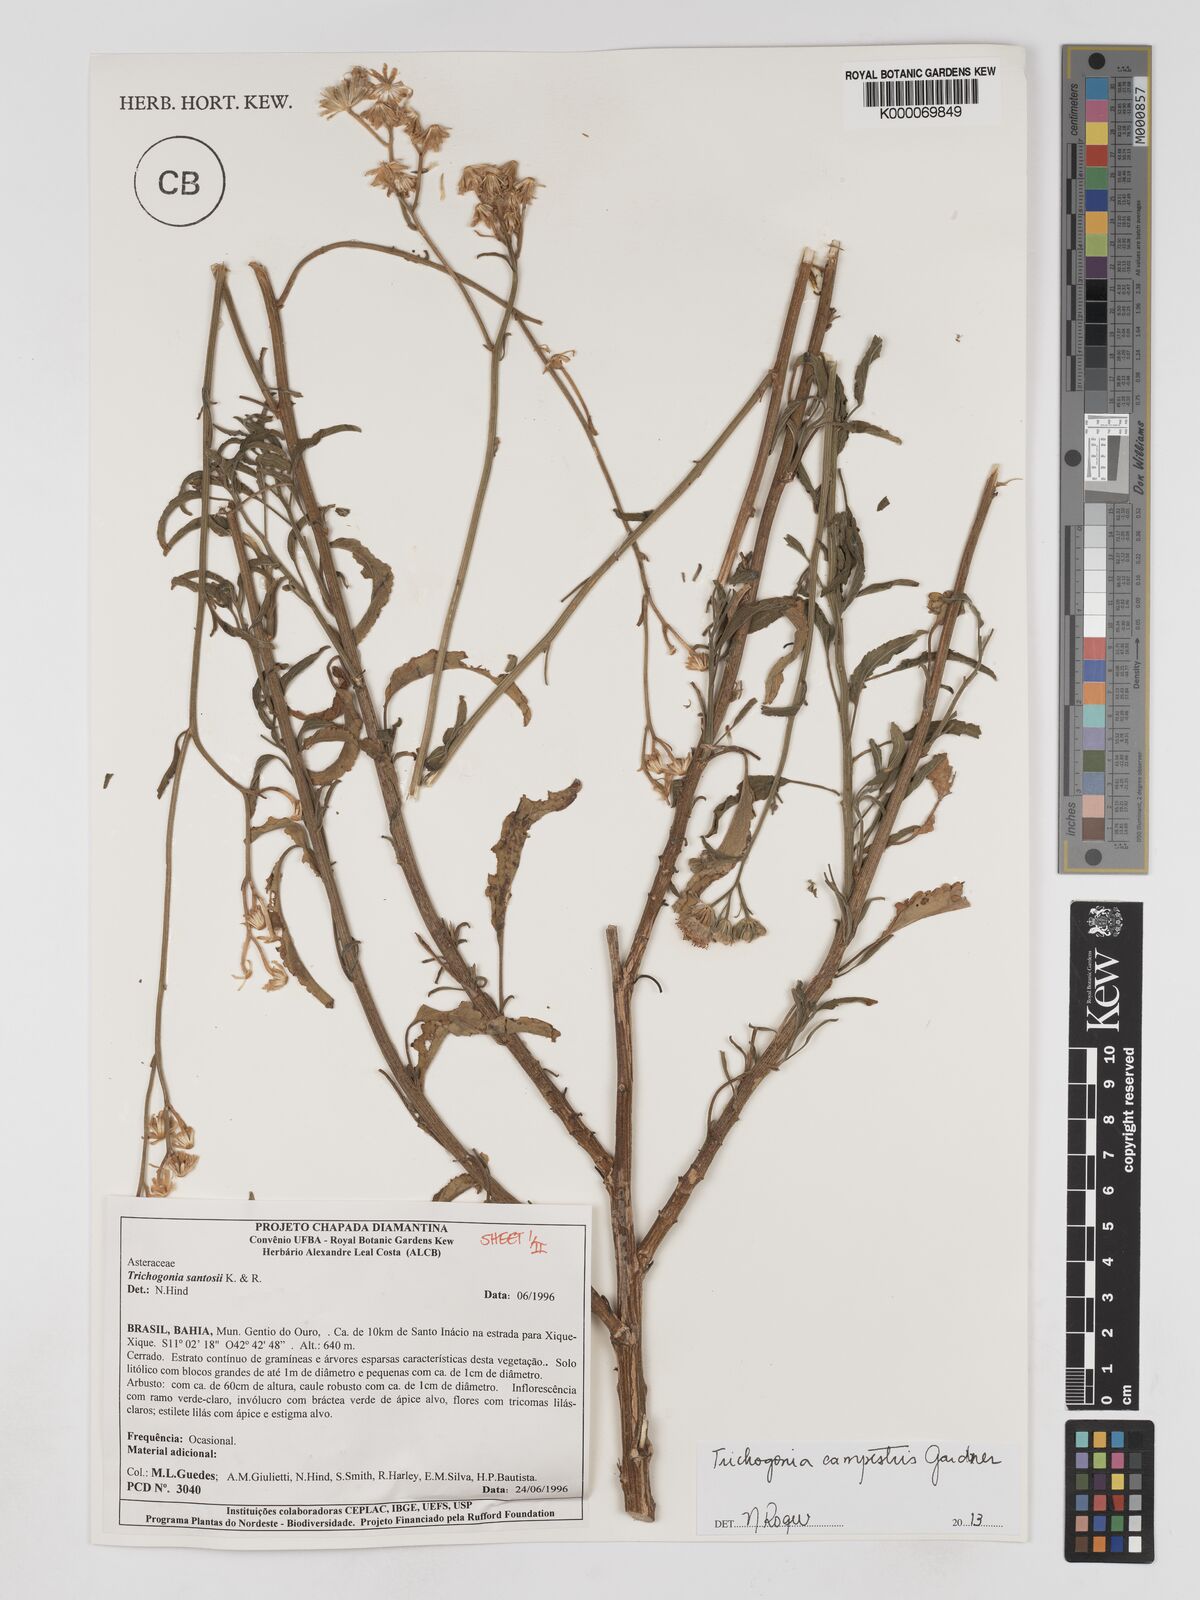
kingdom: Plantae
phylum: Tracheophyta
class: Magnoliopsida
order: Asterales
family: Asteraceae
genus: Trichogonia
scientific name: Trichogonia santosii
